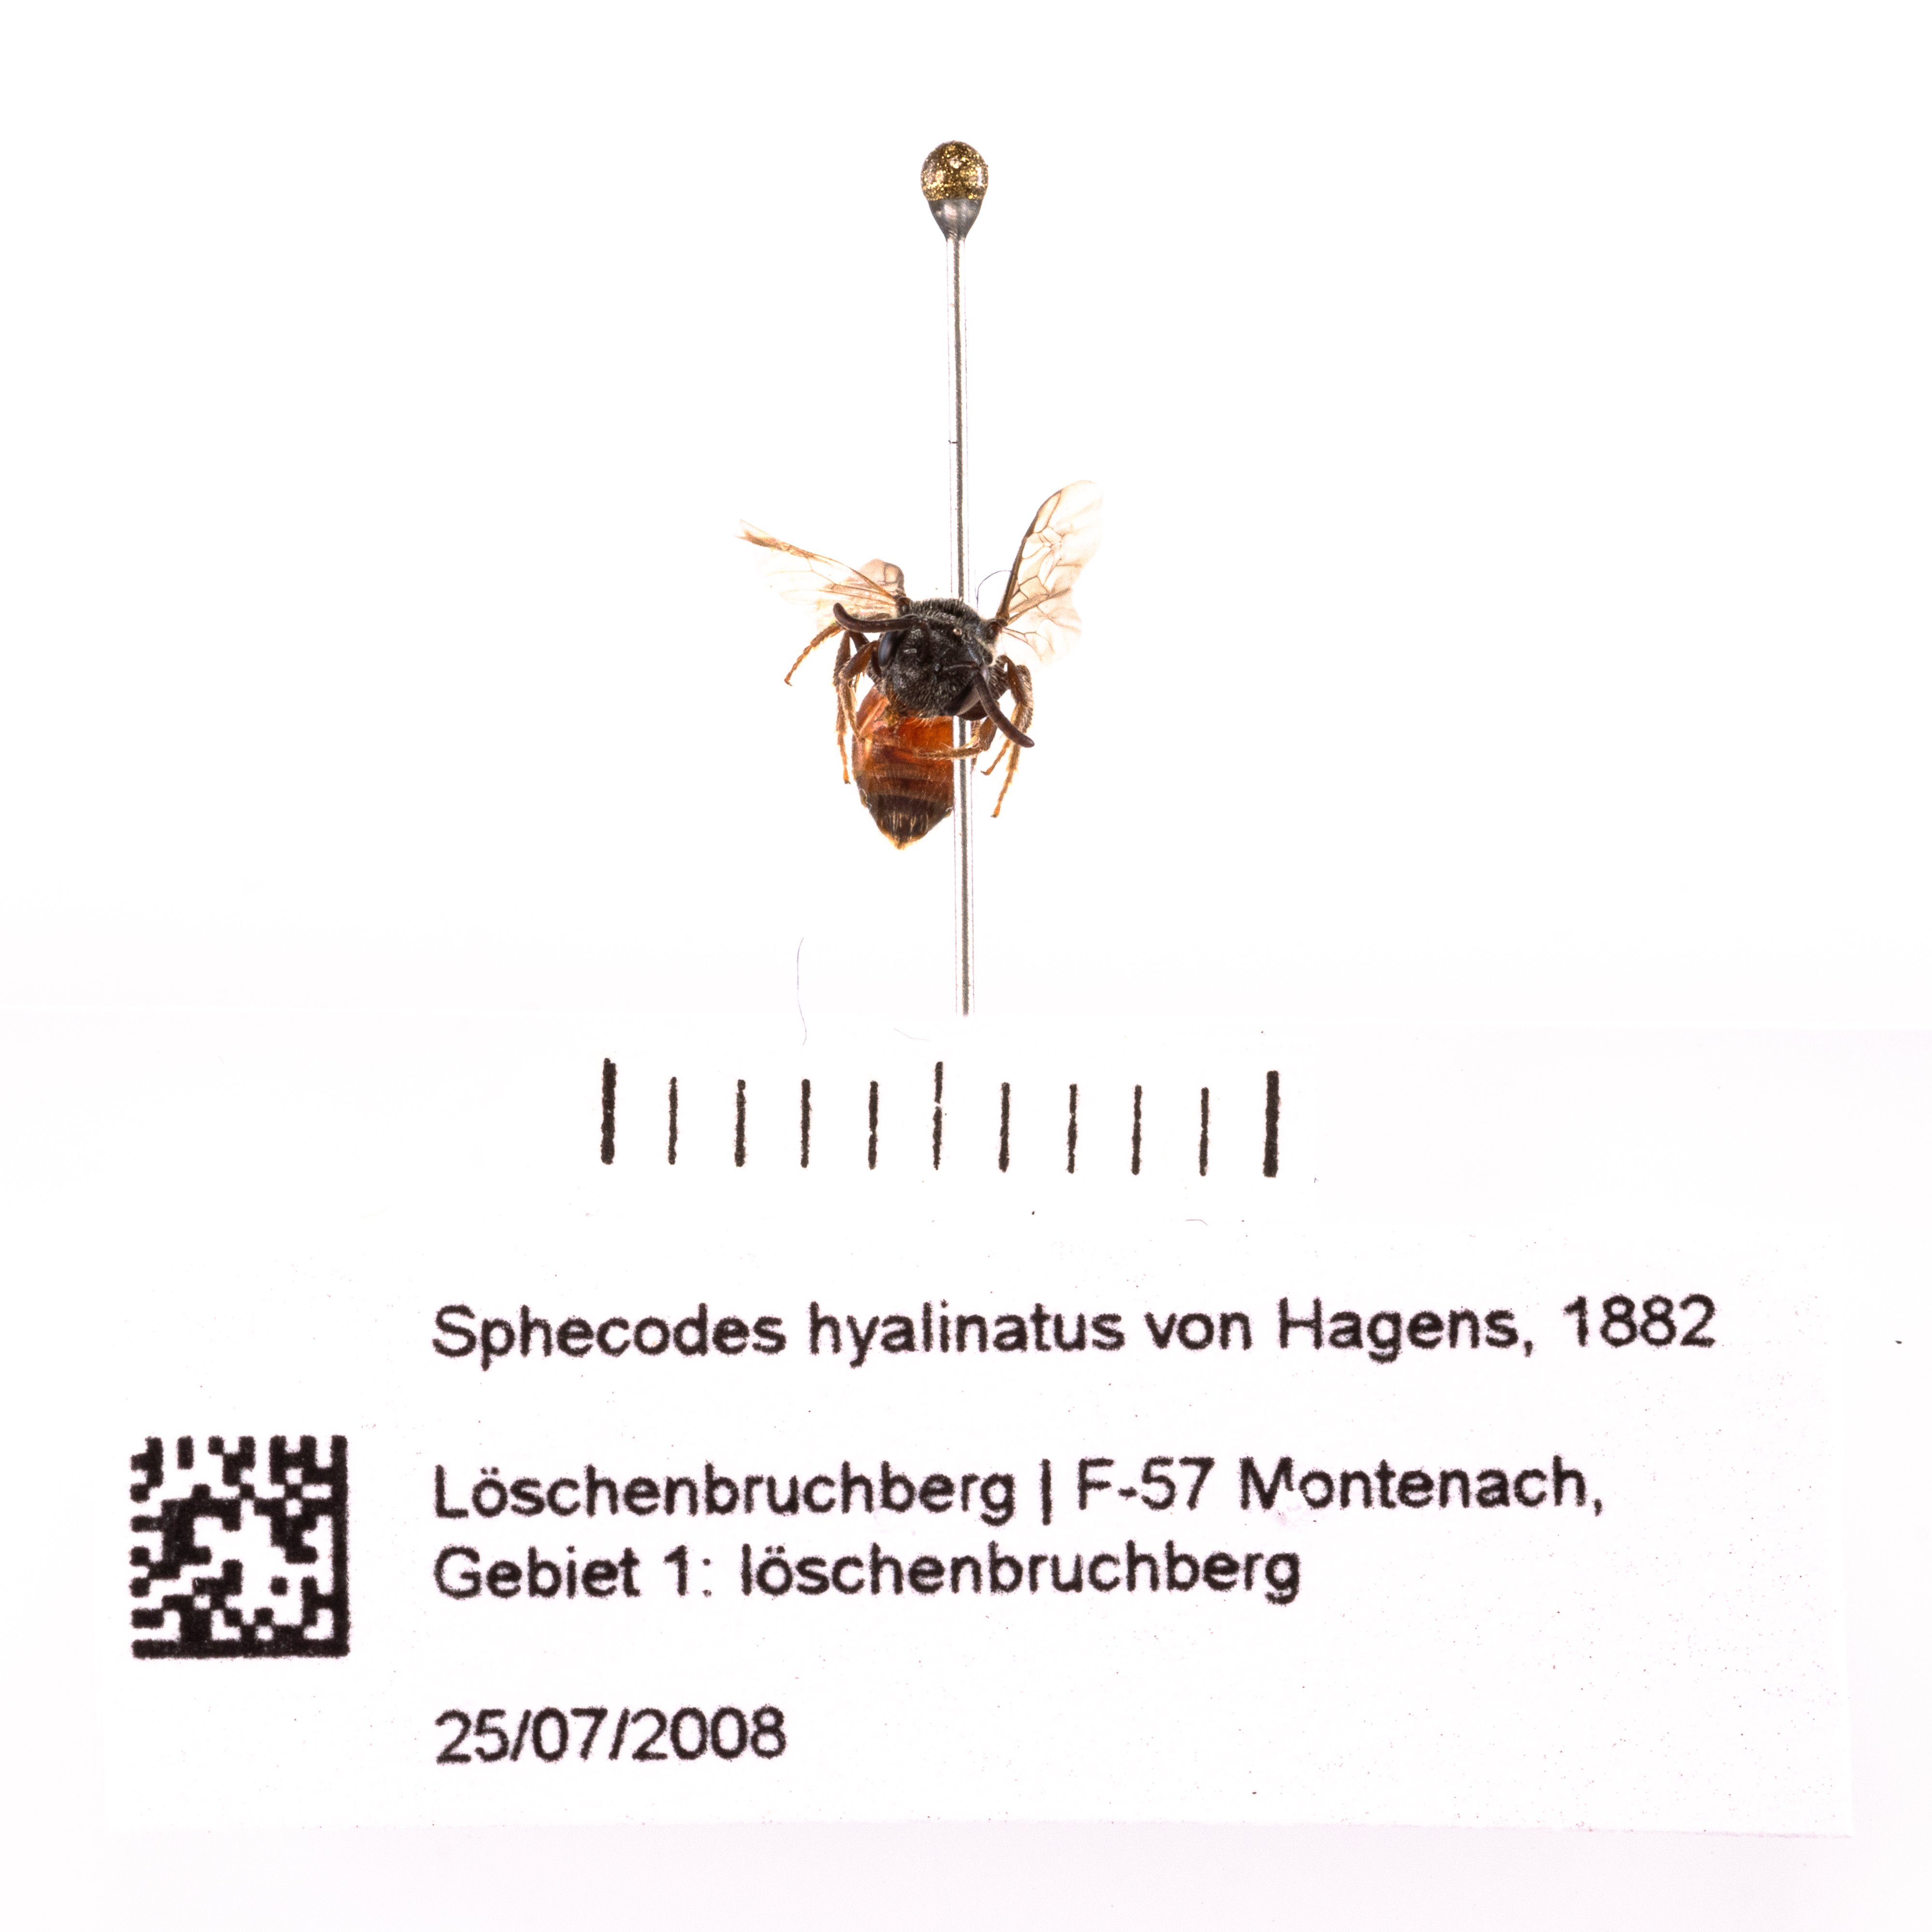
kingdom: Animalia
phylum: Arthropoda
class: Insecta
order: Hymenoptera
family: Halictidae
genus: Sphecodes
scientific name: Sphecodes hyalinatus
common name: Furry-bellied blood bee
